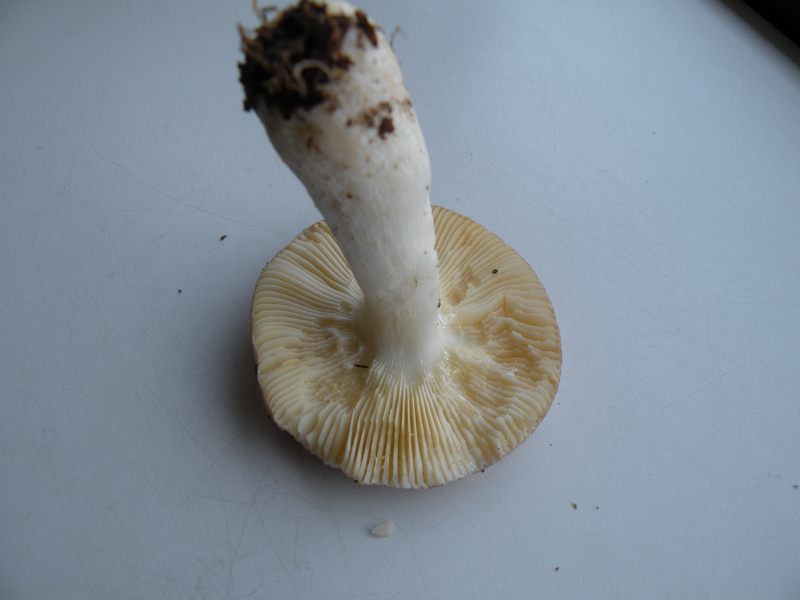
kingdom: Fungi
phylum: Basidiomycota
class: Agaricomycetes
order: Russulales
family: Russulaceae
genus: Russula
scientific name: Russula nauseosa
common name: spinkel skørhat
